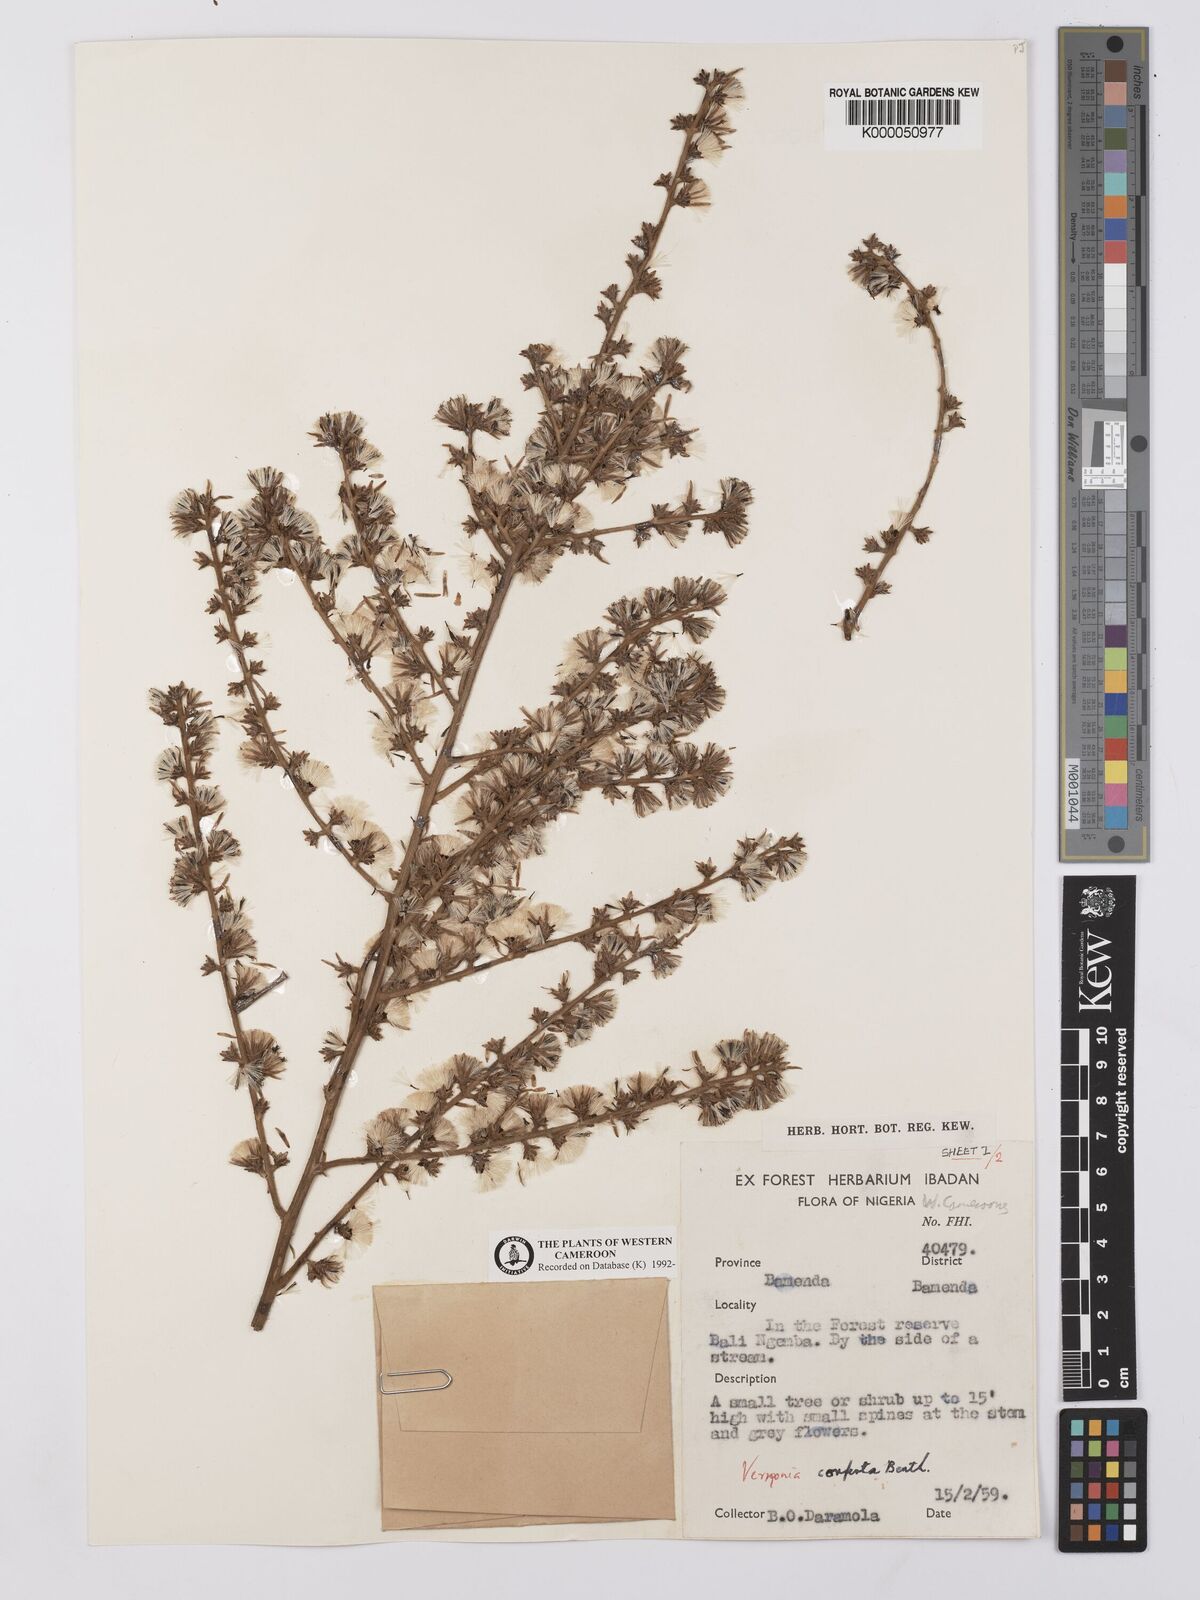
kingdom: Plantae
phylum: Tracheophyta
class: Magnoliopsida
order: Asterales
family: Asteraceae
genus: Brenandendron
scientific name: Brenandendron donianum
